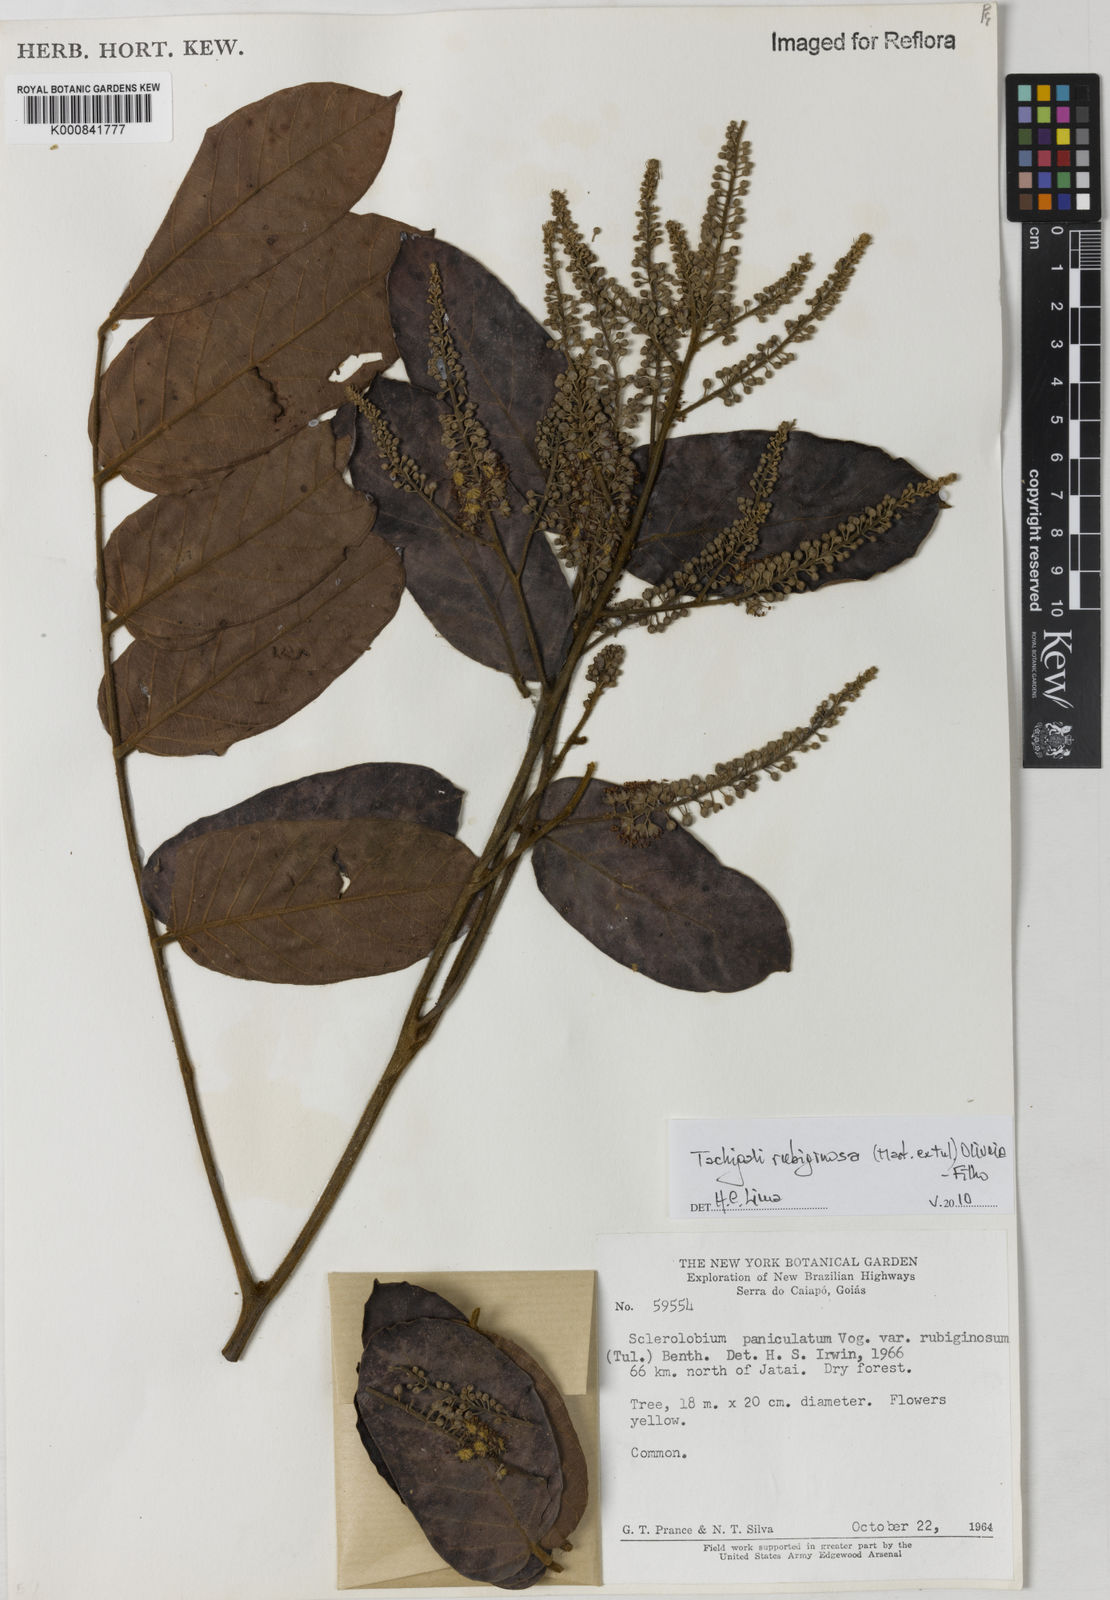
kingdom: Plantae
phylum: Tracheophyta
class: Magnoliopsida
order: Fabales
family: Fabaceae
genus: Tachigali
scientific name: Tachigali rubiginosa
